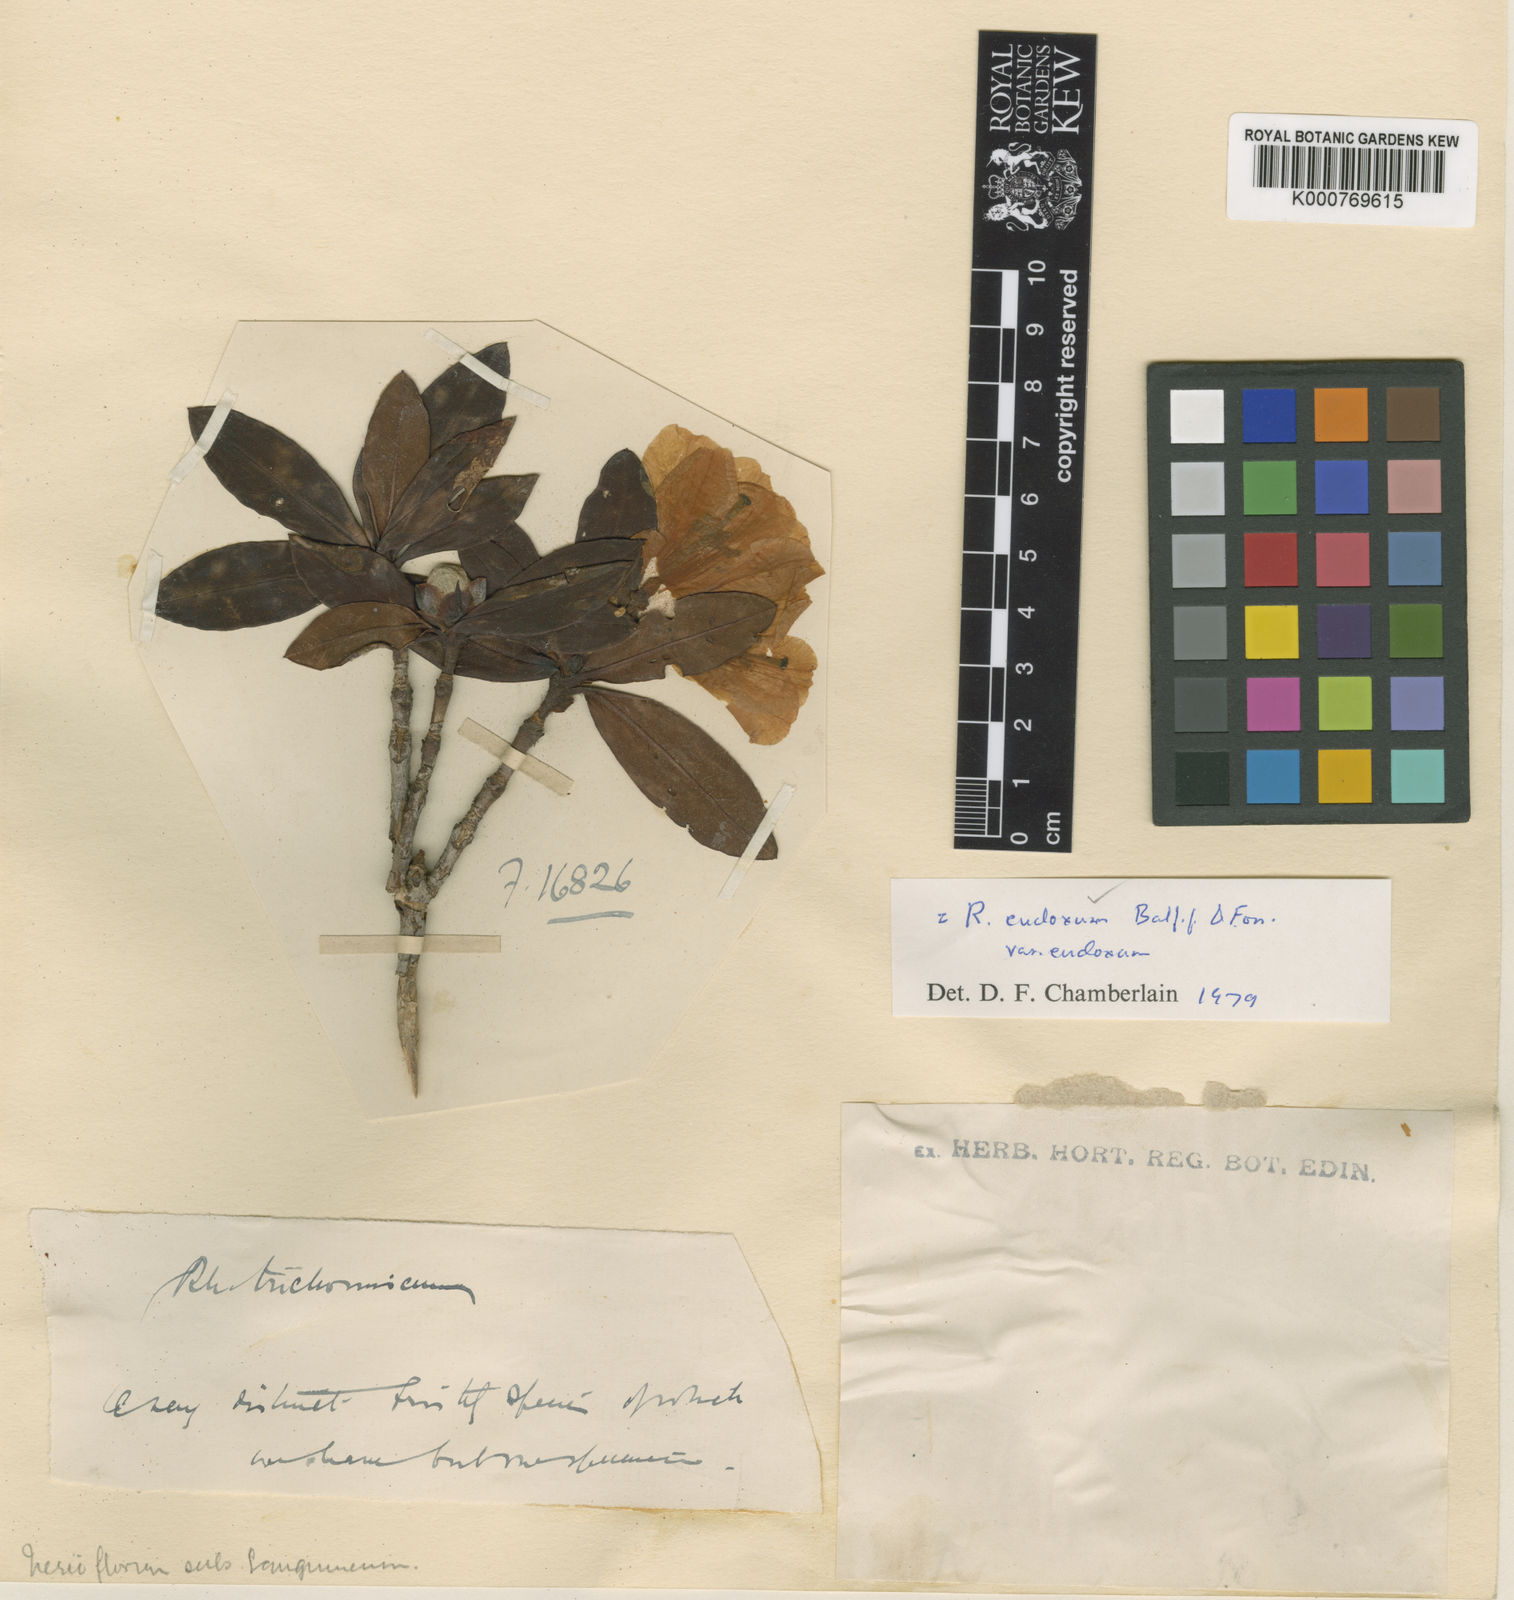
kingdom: Plantae
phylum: Tracheophyta
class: Magnoliopsida
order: Ericales
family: Ericaceae
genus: Rhododendron
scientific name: Rhododendron eudoxum
